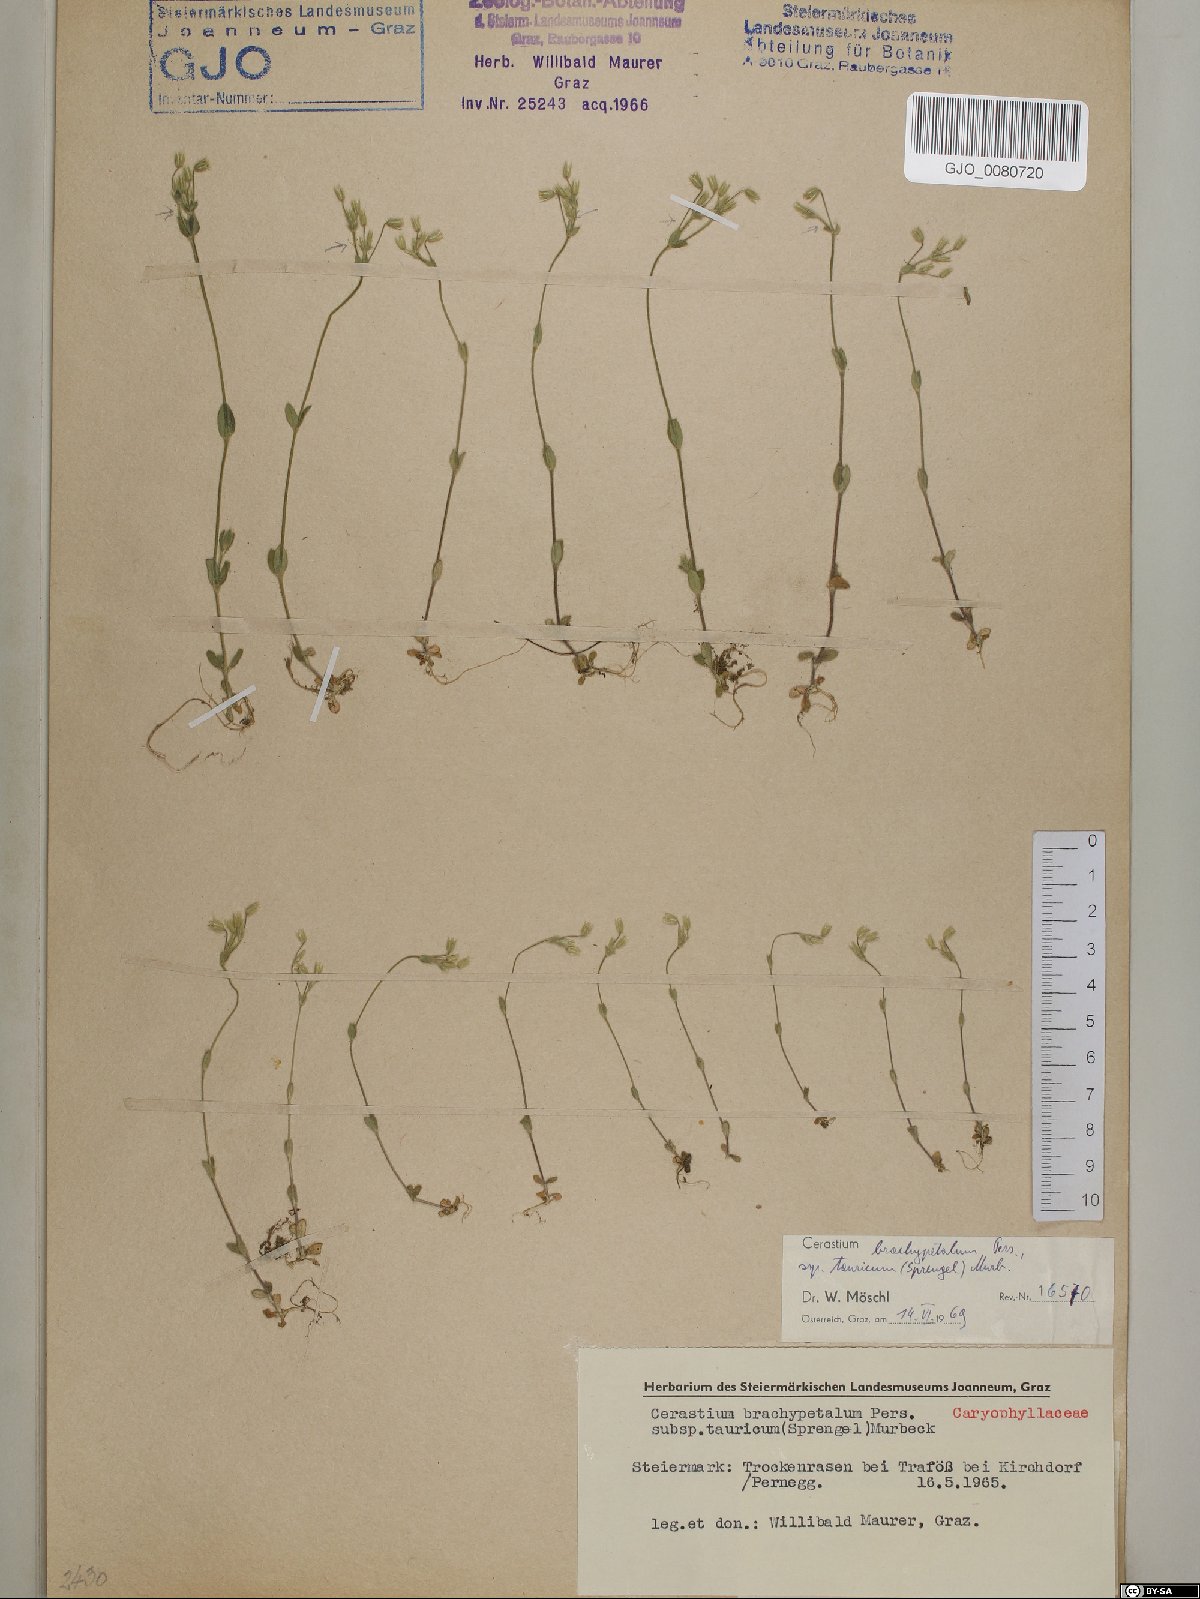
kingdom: Plantae
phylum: Tracheophyta
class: Magnoliopsida
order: Caryophyllales
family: Caryophyllaceae
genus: Cerastium
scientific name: Cerastium brachypetalum
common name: Grey mouse-ear
